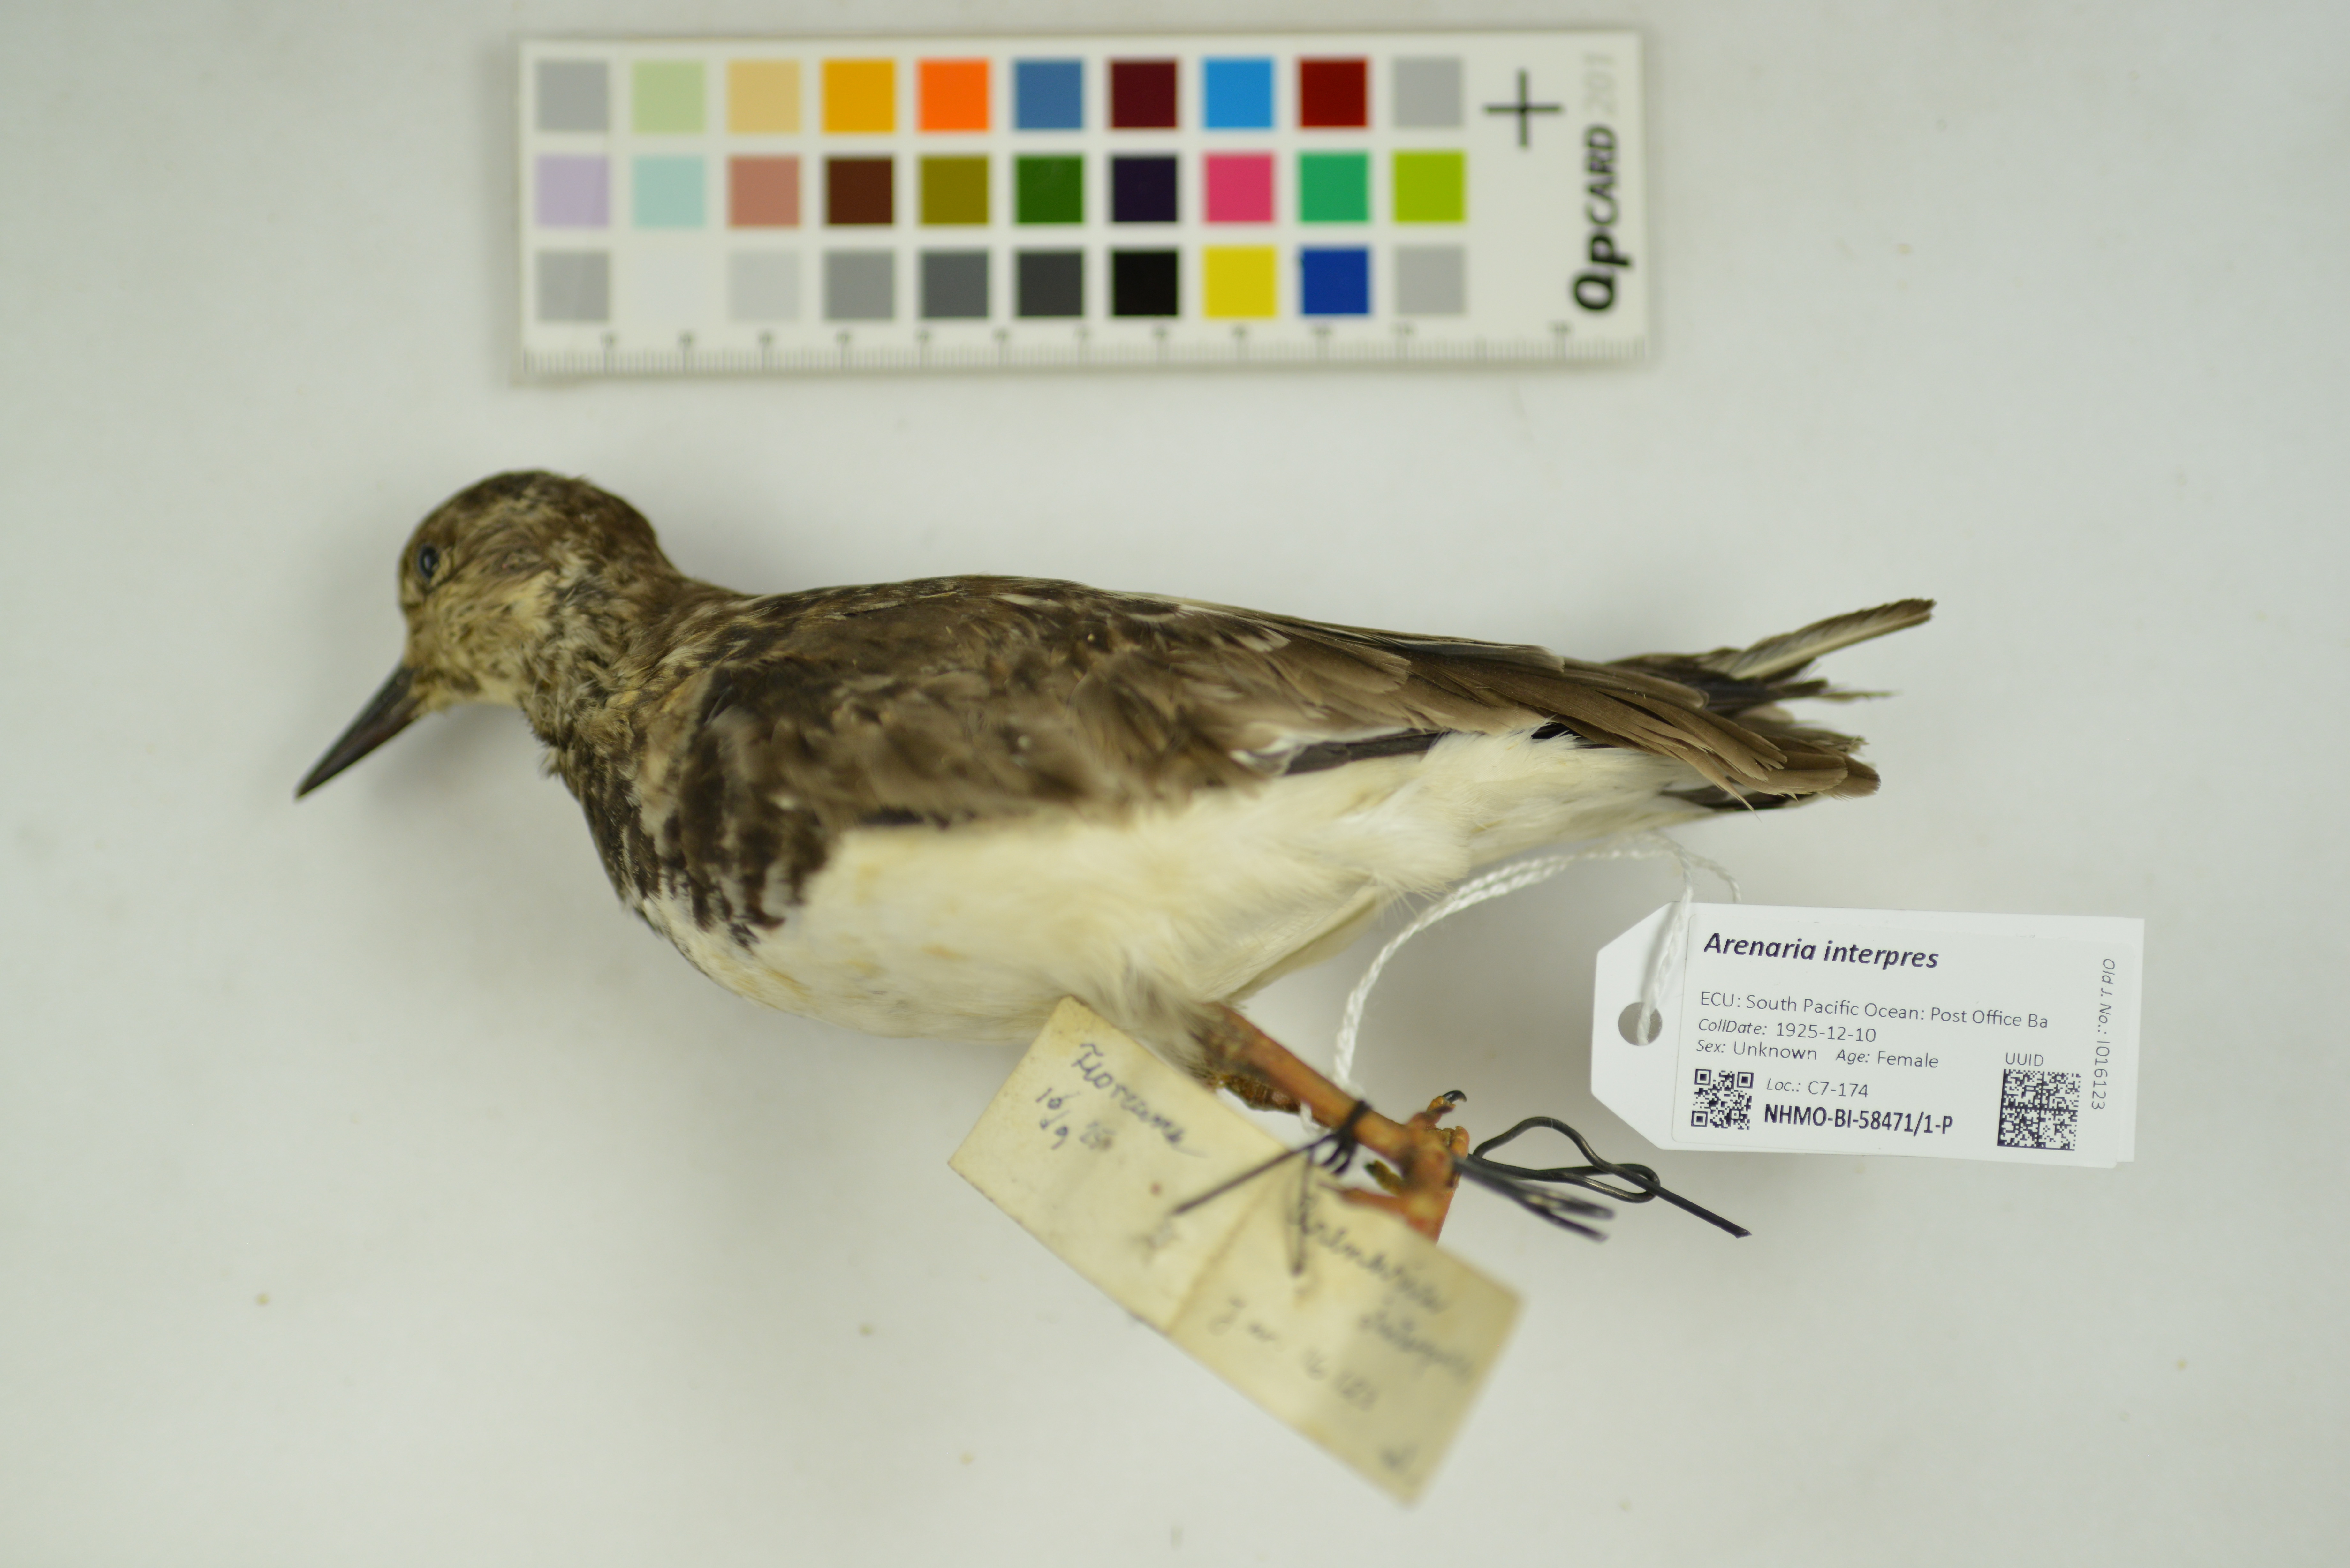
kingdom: Animalia
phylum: Chordata
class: Aves
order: Charadriiformes
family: Scolopacidae
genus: Arenaria
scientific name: Arenaria interpres
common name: Ruddy turnstone
